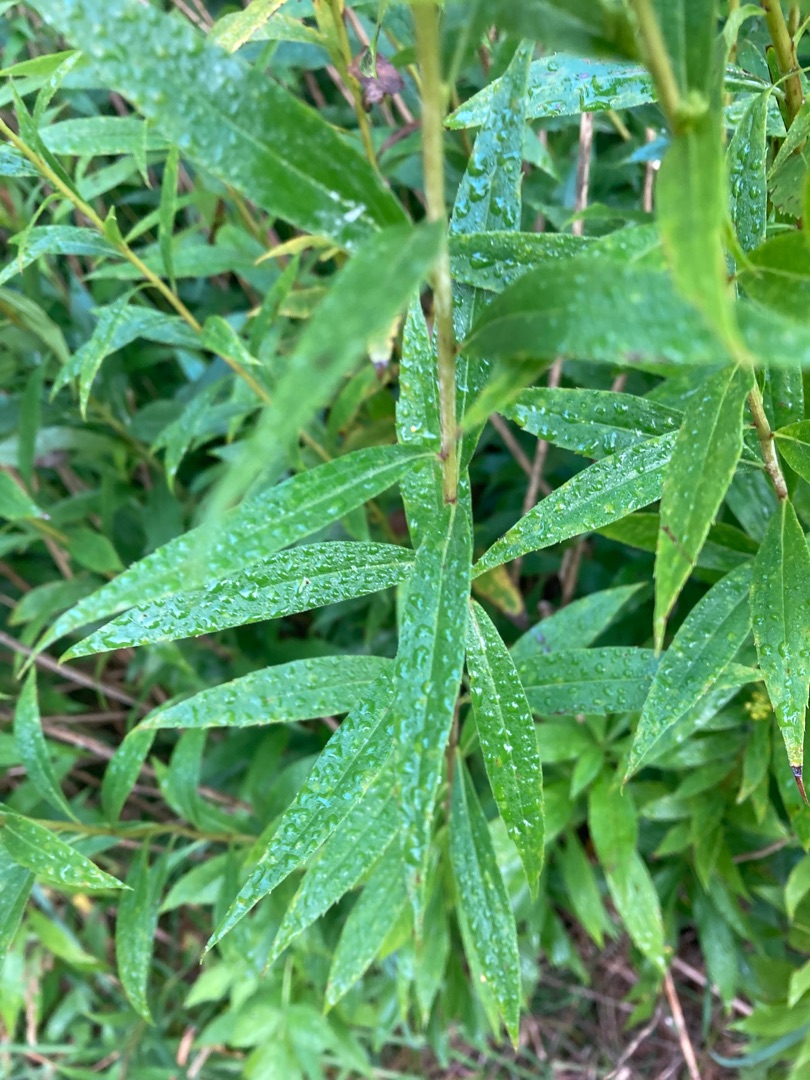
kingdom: Plantae
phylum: Tracheophyta
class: Magnoliopsida
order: Asterales
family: Asteraceae
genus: Solidago
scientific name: Solidago gigantea
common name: Sildig gyldenris
